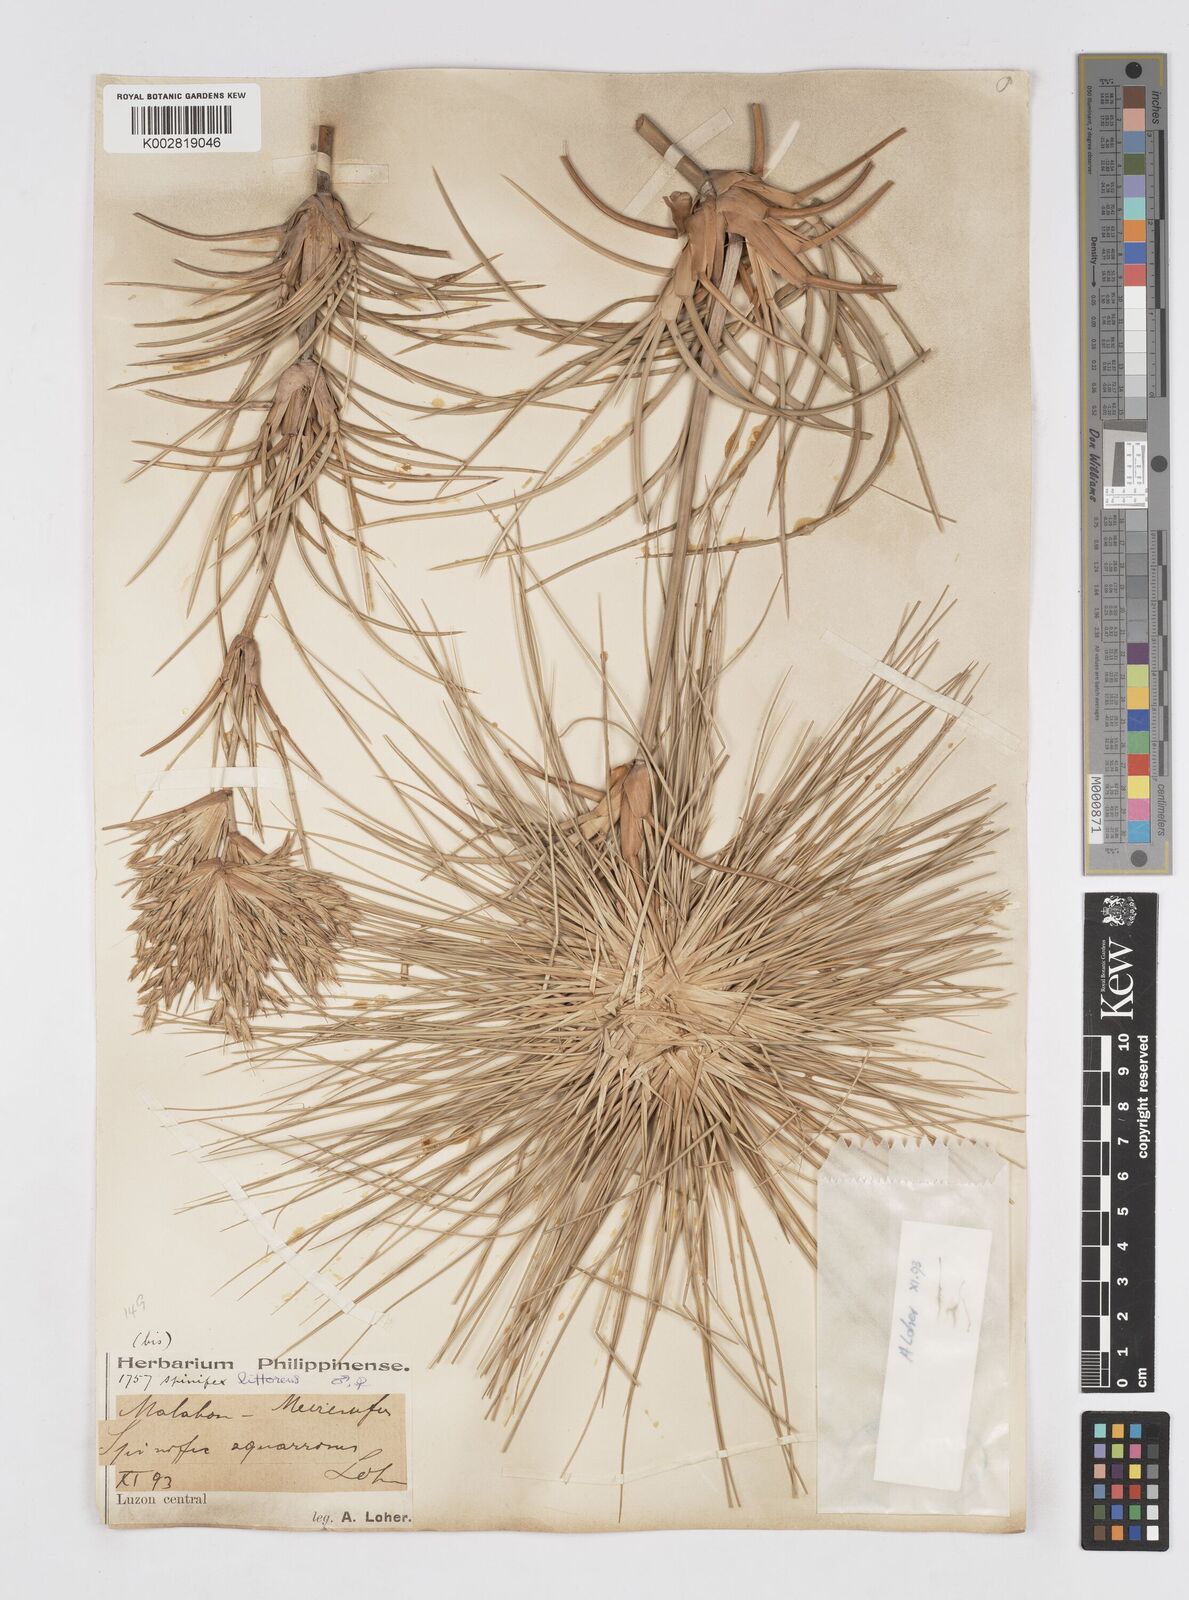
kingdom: Plantae
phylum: Tracheophyta
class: Liliopsida
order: Poales
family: Poaceae
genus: Spinifex
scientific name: Spinifex littoreus
